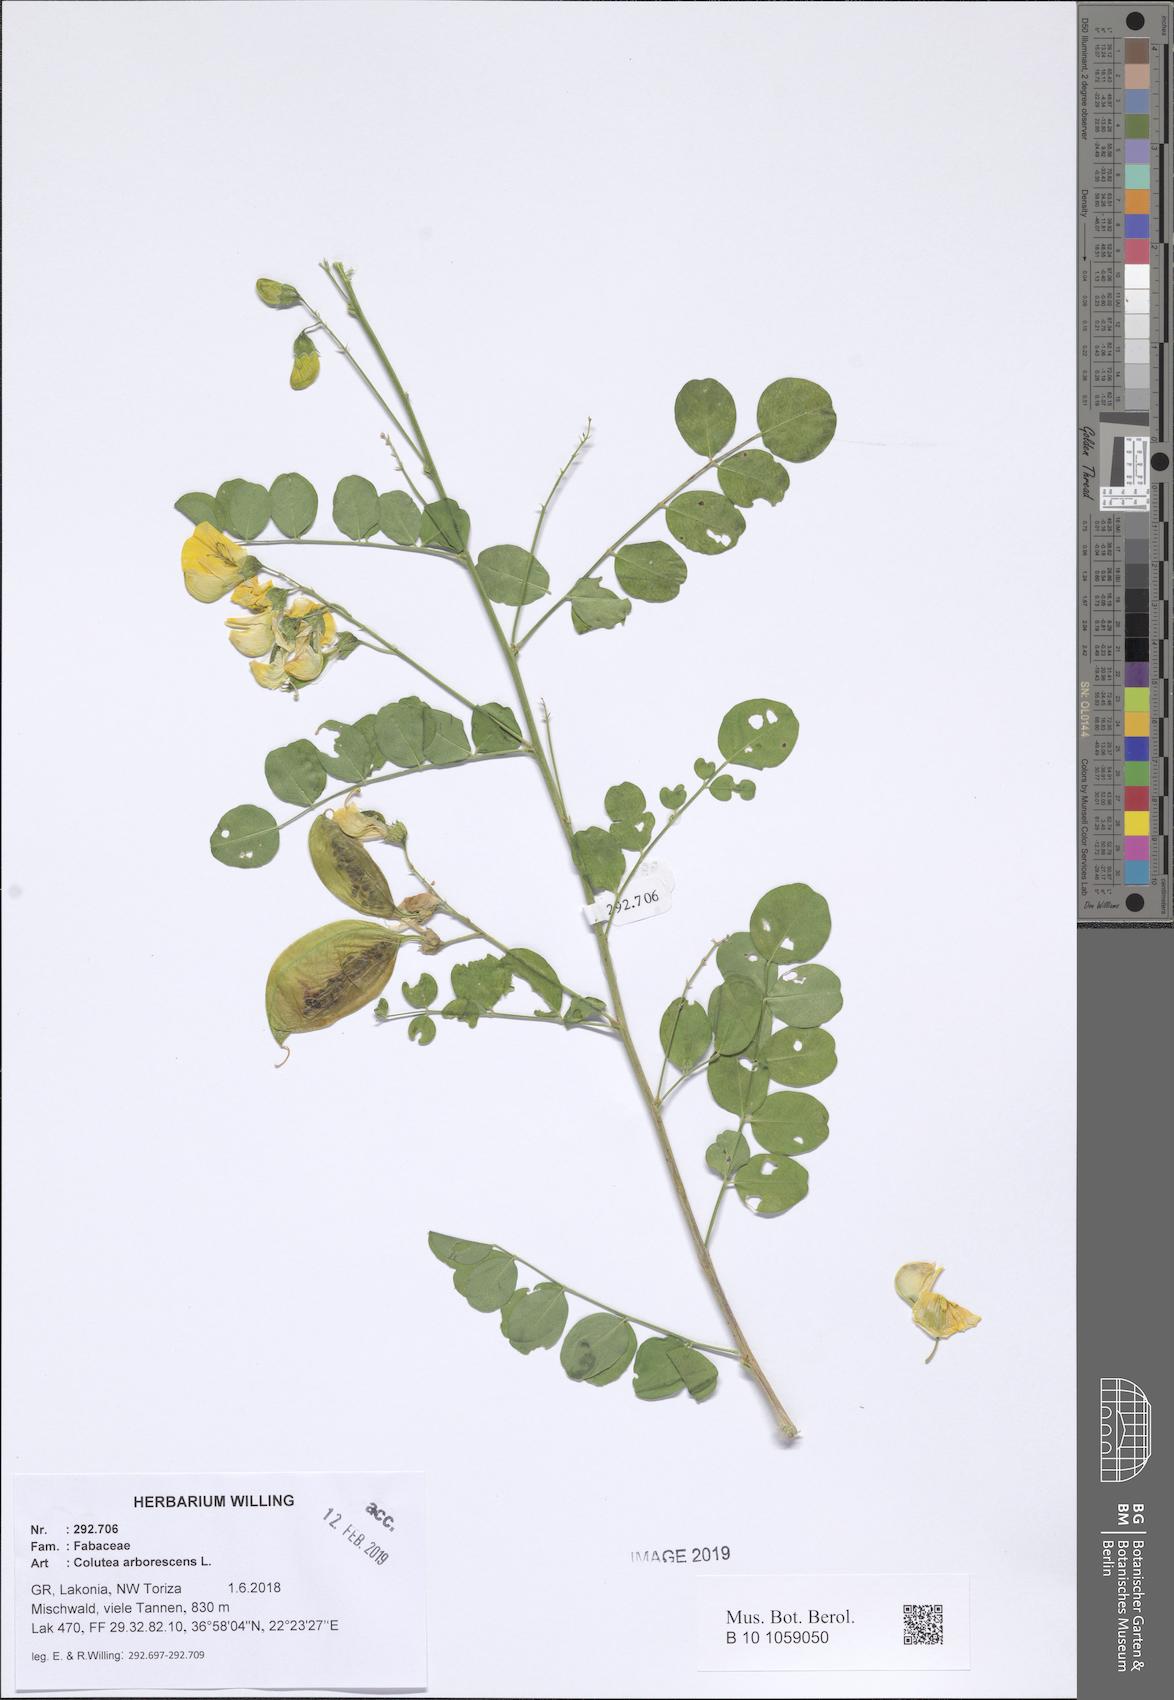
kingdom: Plantae
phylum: Tracheophyta
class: Magnoliopsida
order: Fabales
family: Fabaceae
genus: Colutea
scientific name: Colutea arborescens
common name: Bladder-senna
